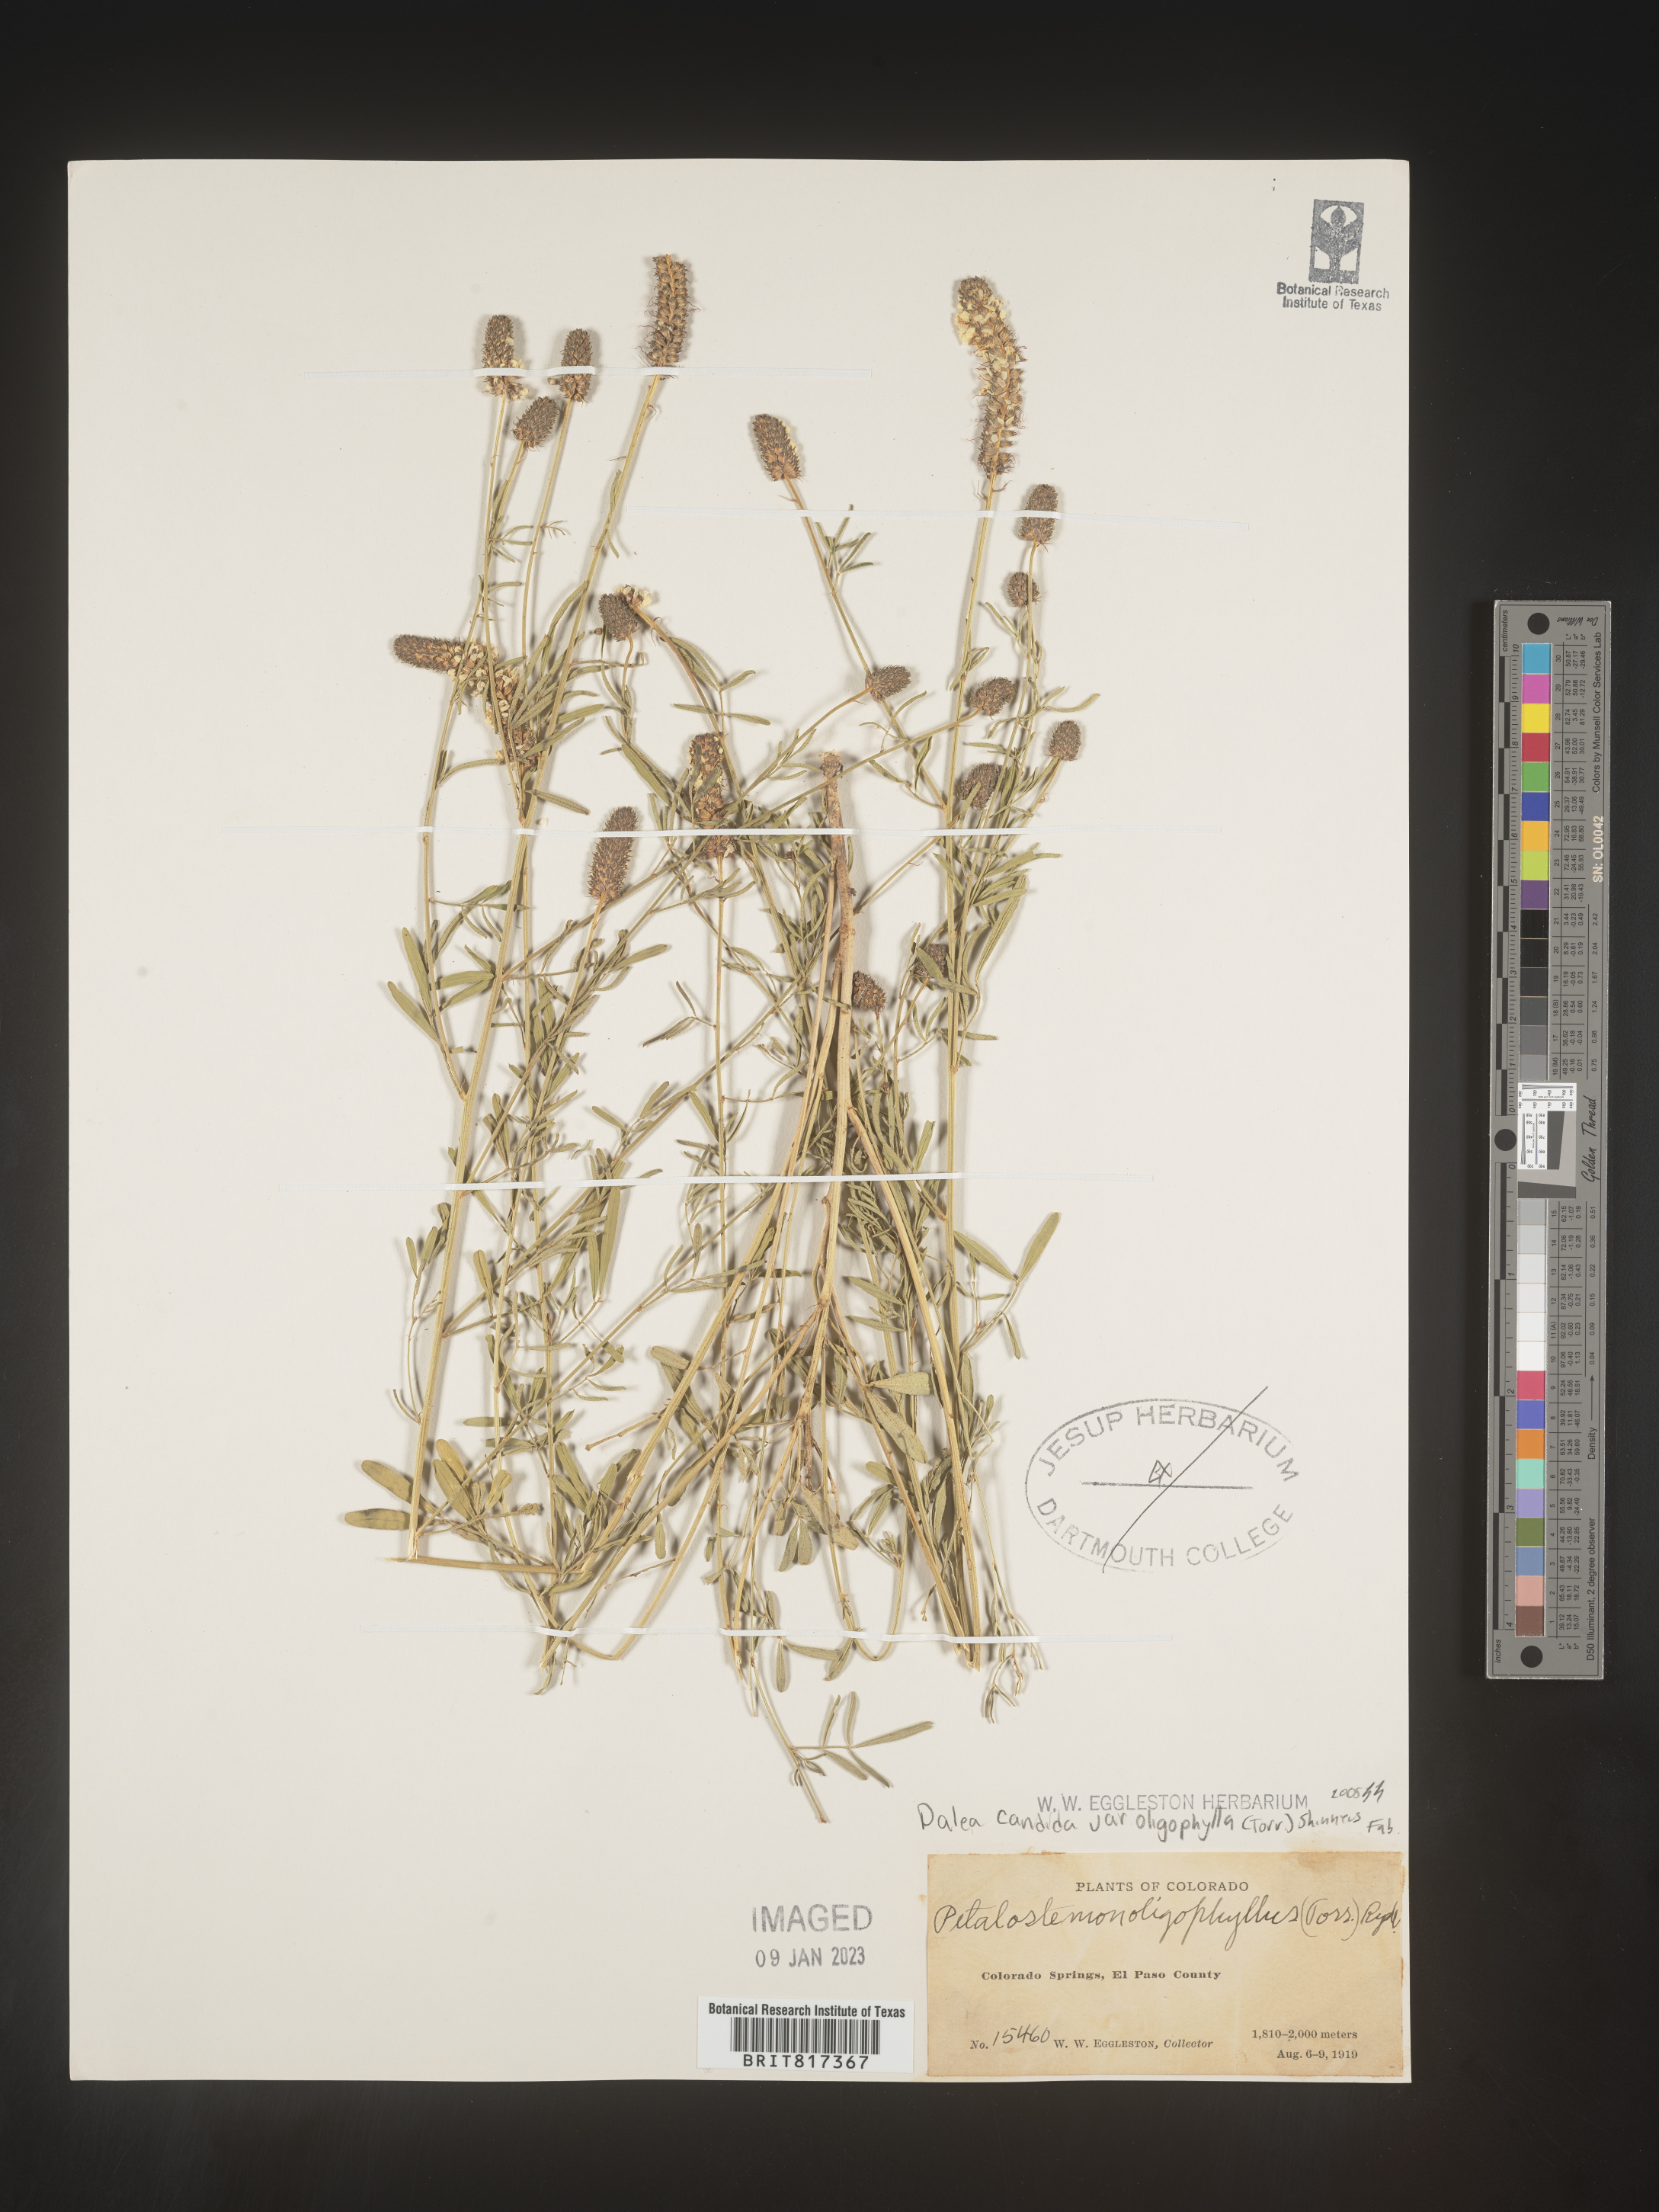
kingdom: Plantae
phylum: Tracheophyta
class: Magnoliopsida
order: Fabales
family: Fabaceae
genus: Dalea
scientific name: Dalea candida
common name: White prairie-clover
